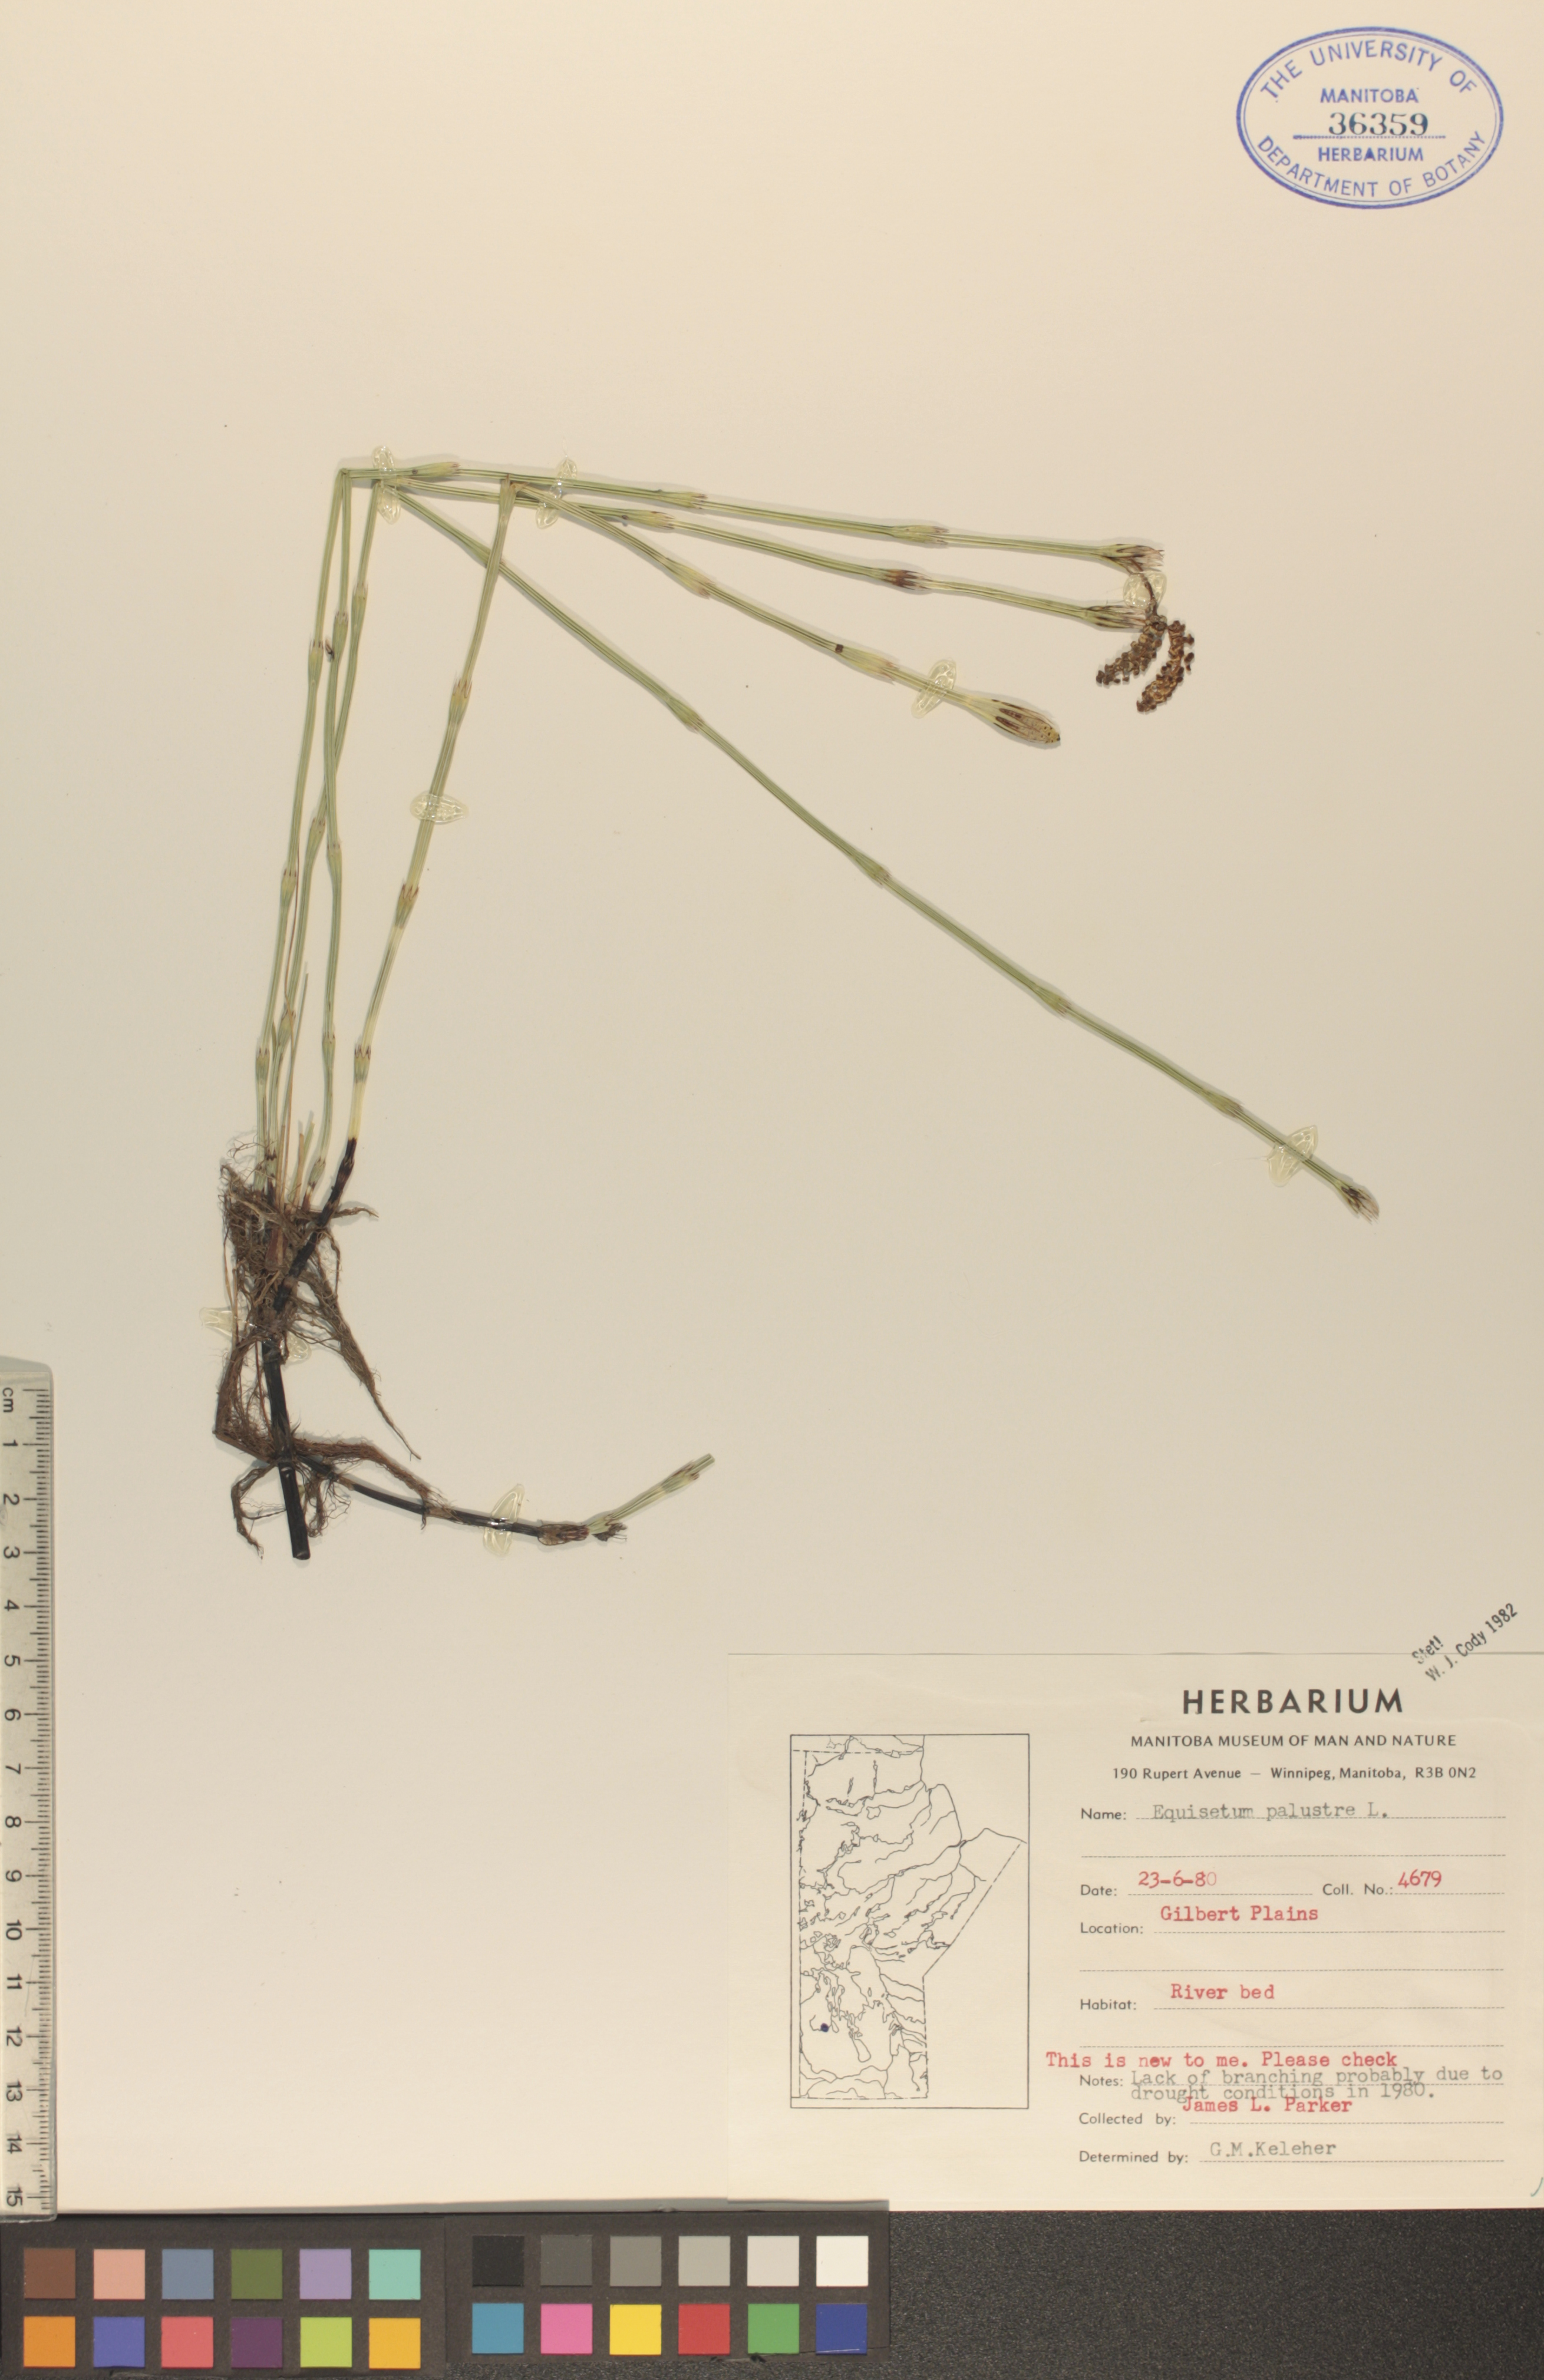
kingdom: Plantae
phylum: Tracheophyta
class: Polypodiopsida
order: Equisetales
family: Equisetaceae
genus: Equisetum
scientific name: Equisetum palustre
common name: Marsh horsetail
